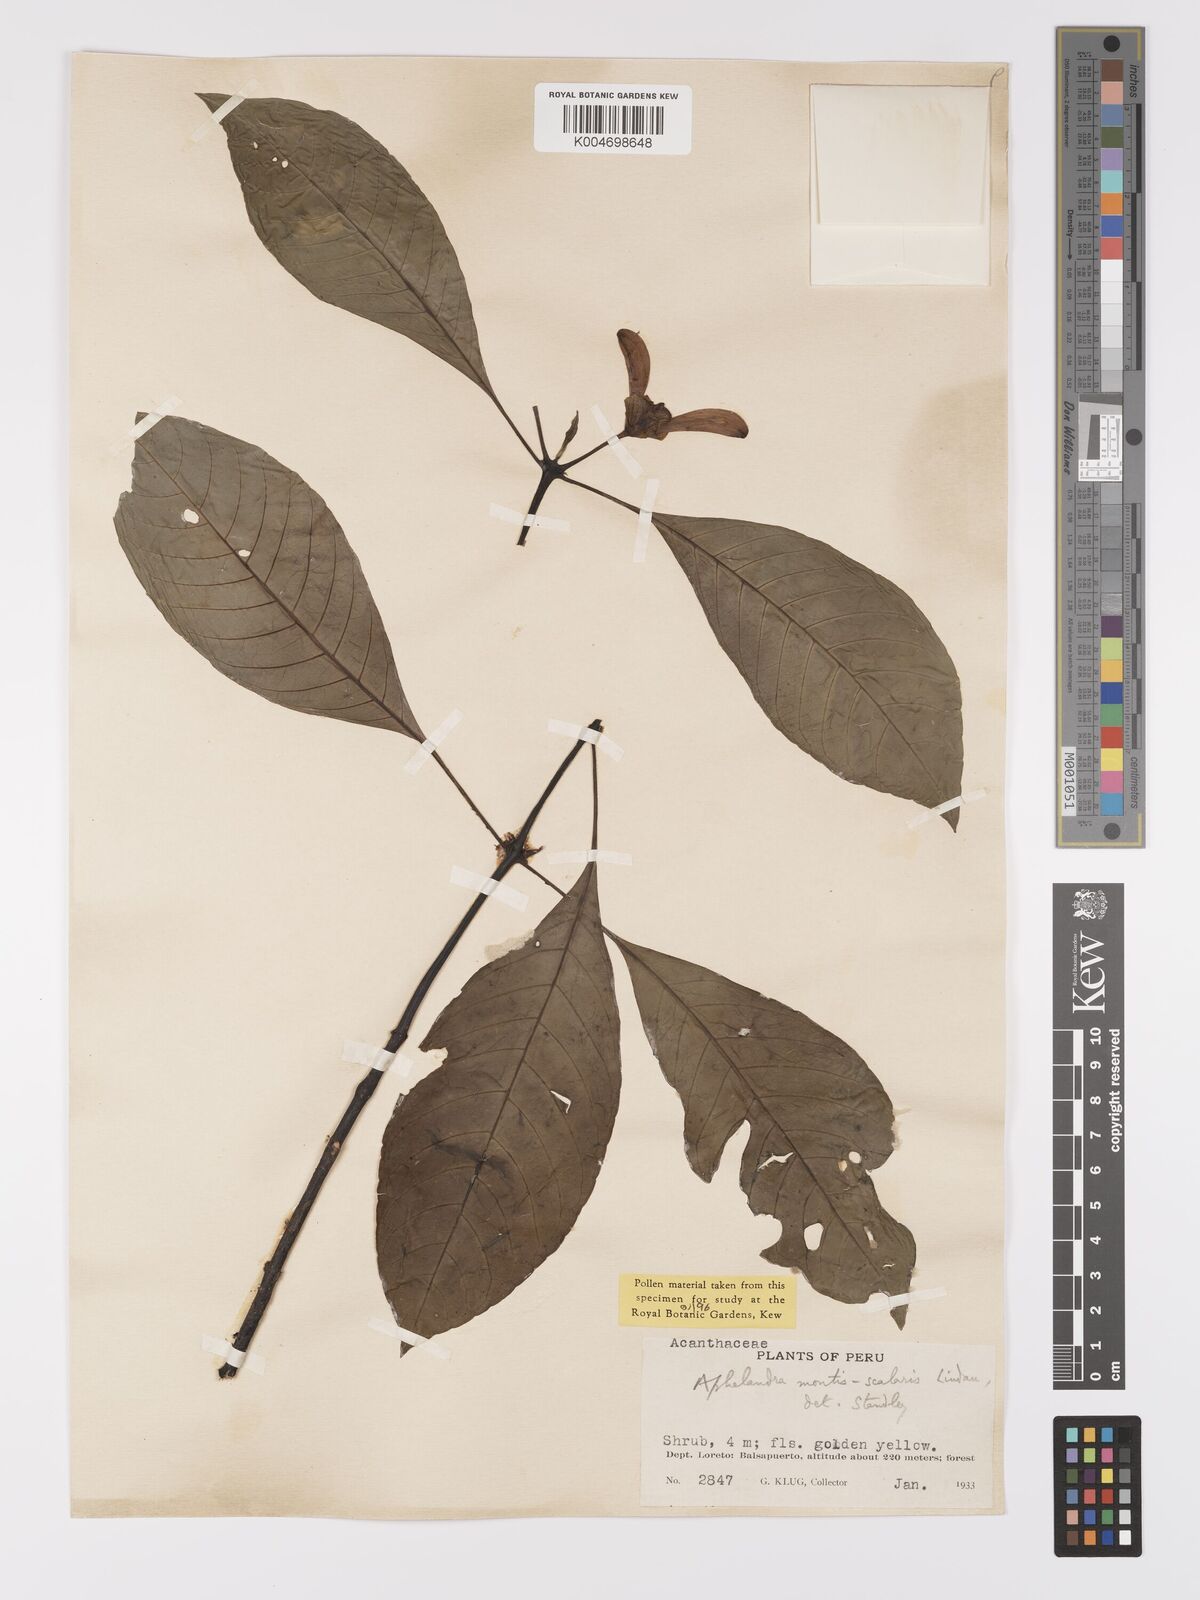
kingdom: Plantae
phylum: Tracheophyta
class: Magnoliopsida
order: Lamiales
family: Acanthaceae
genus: Aphelandra
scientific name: Aphelandra jacobinioides
